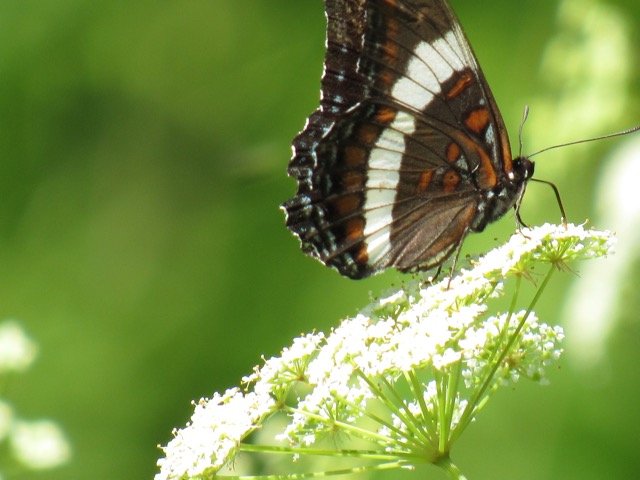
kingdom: Animalia
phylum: Arthropoda
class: Insecta
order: Lepidoptera
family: Nymphalidae
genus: Limenitis
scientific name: Limenitis arthemis
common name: Red-spotted Admiral
